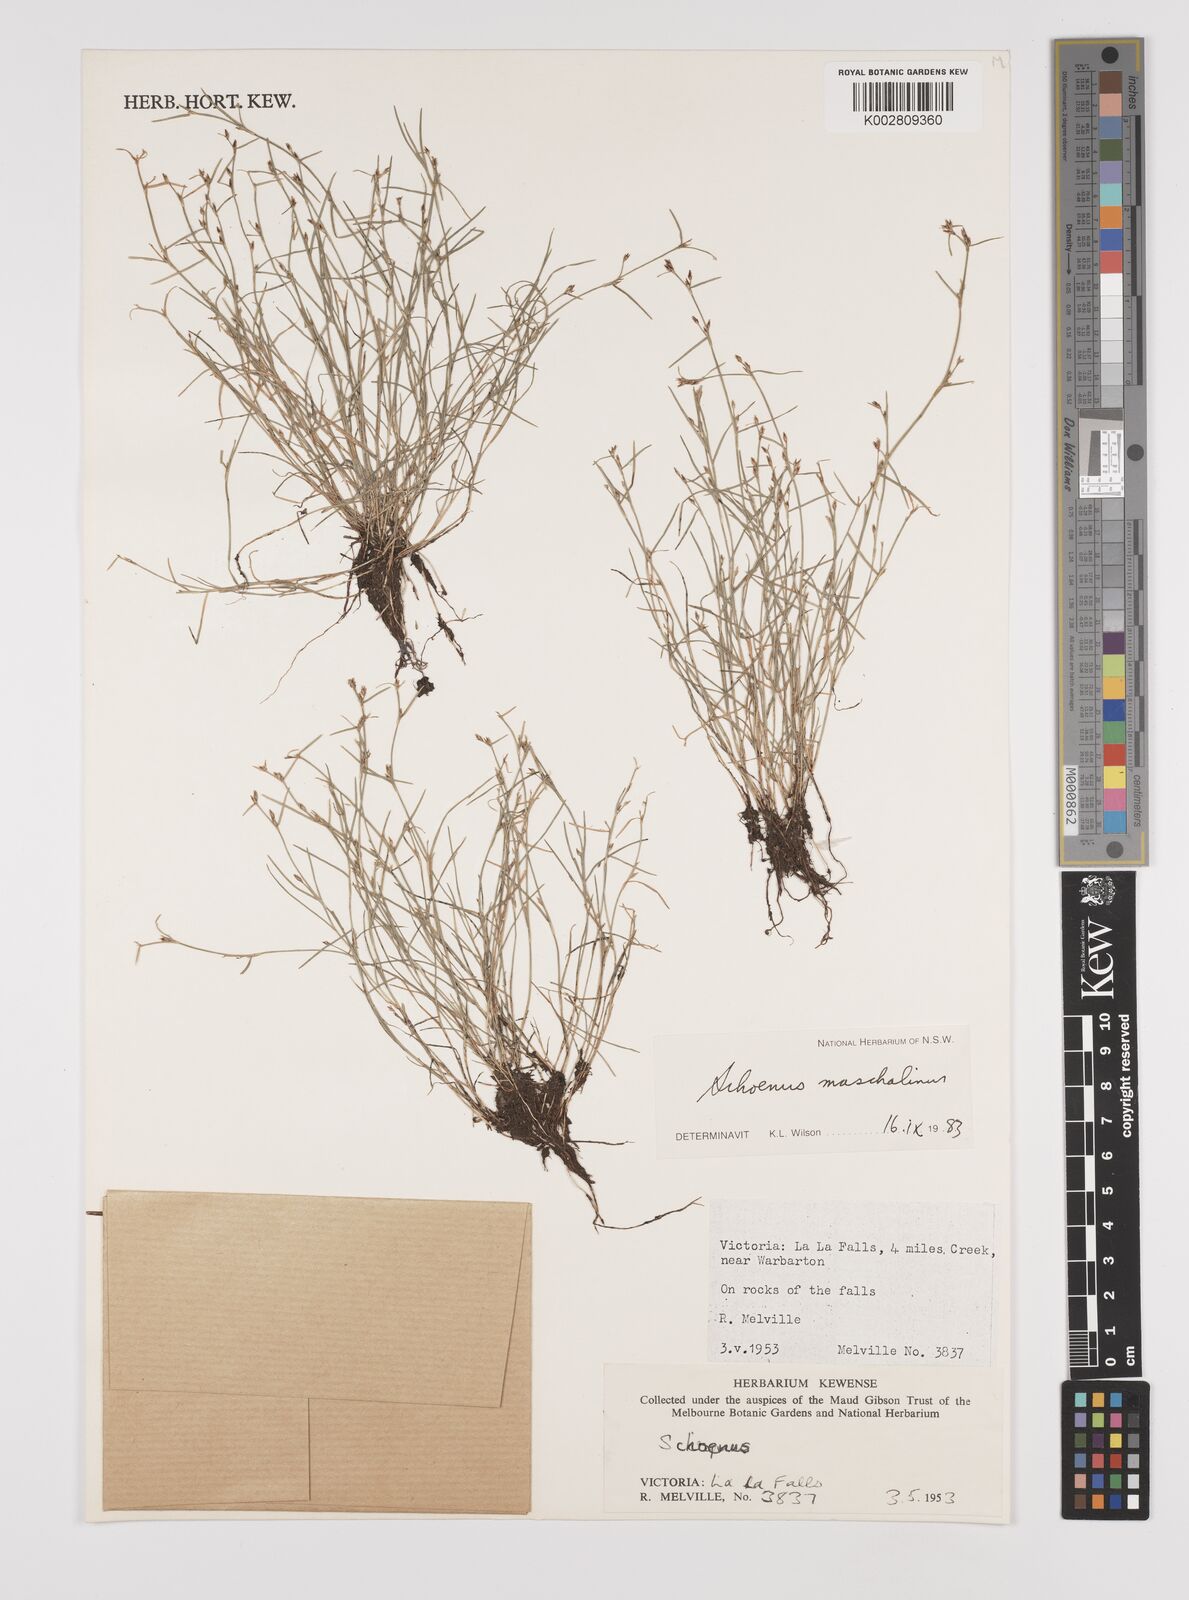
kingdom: Plantae
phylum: Tracheophyta
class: Liliopsida
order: Poales
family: Cyperaceae
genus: Schoenus
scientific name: Schoenus maschalinus
